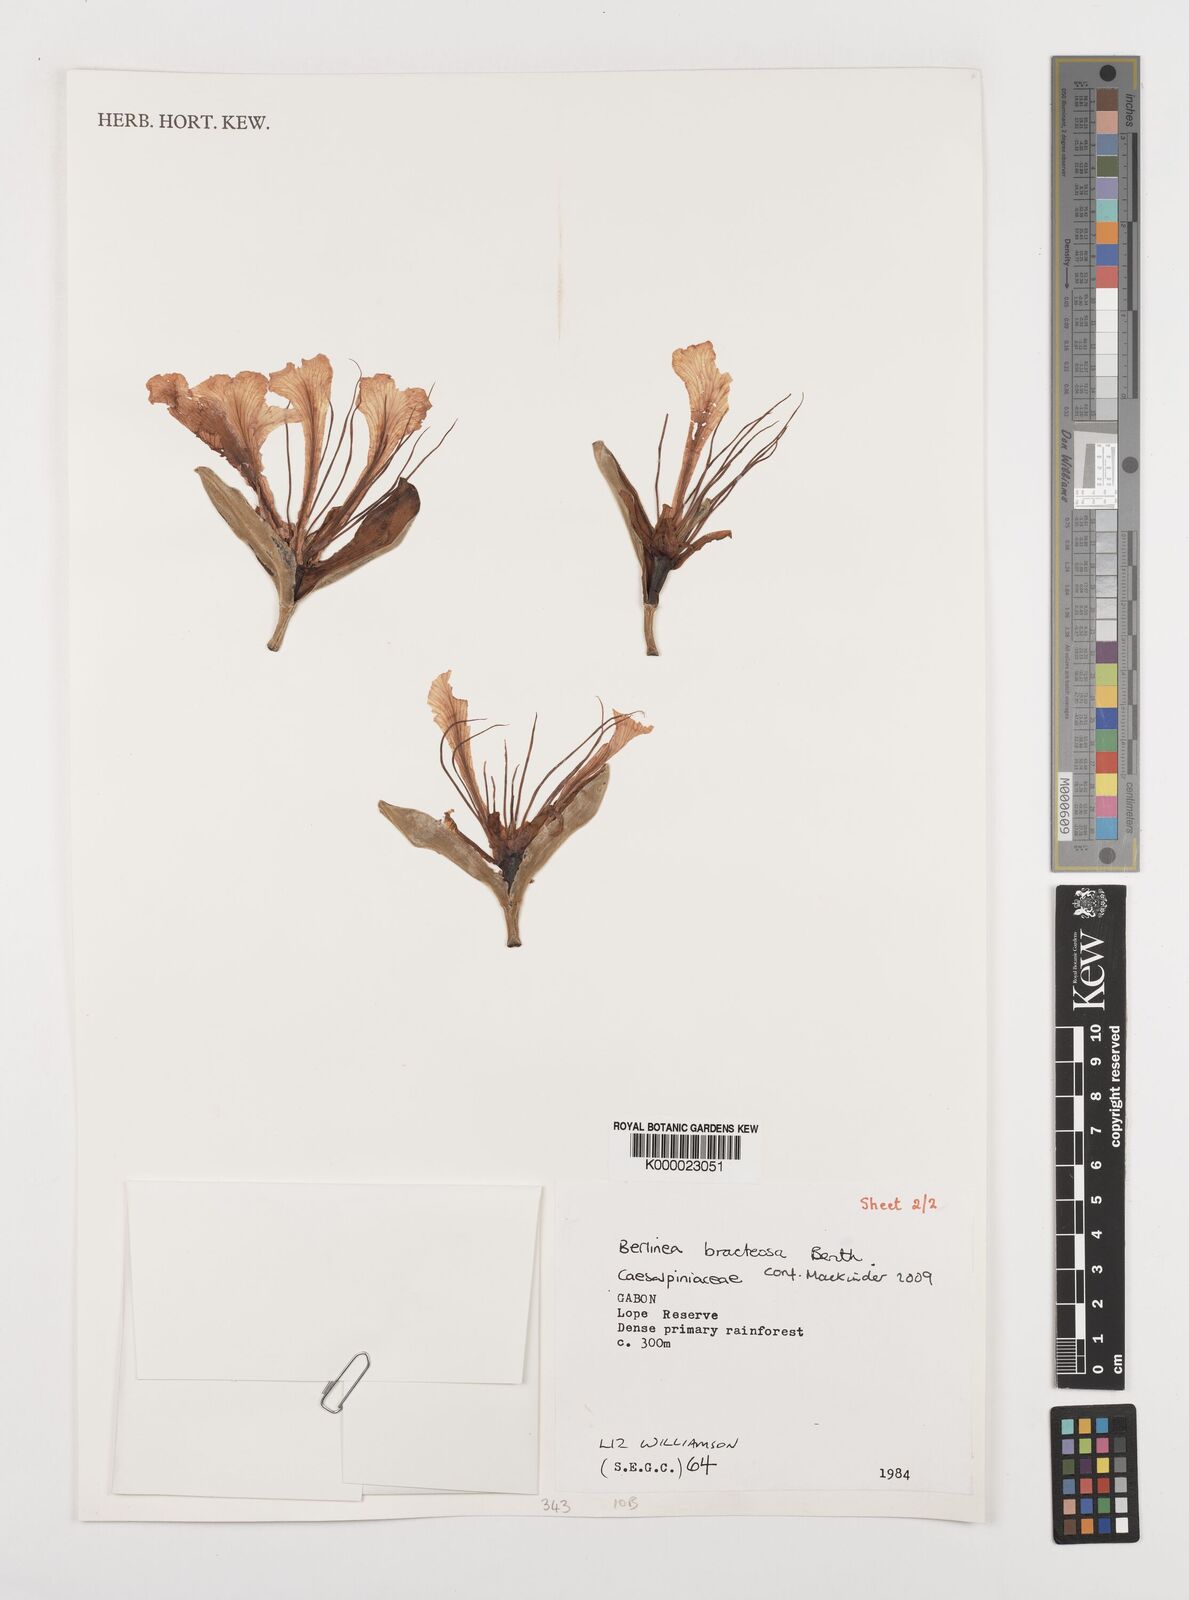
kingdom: Plantae
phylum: Tracheophyta
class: Magnoliopsida
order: Fabales
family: Fabaceae
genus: Berlinia
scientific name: Berlinia bracteosa
